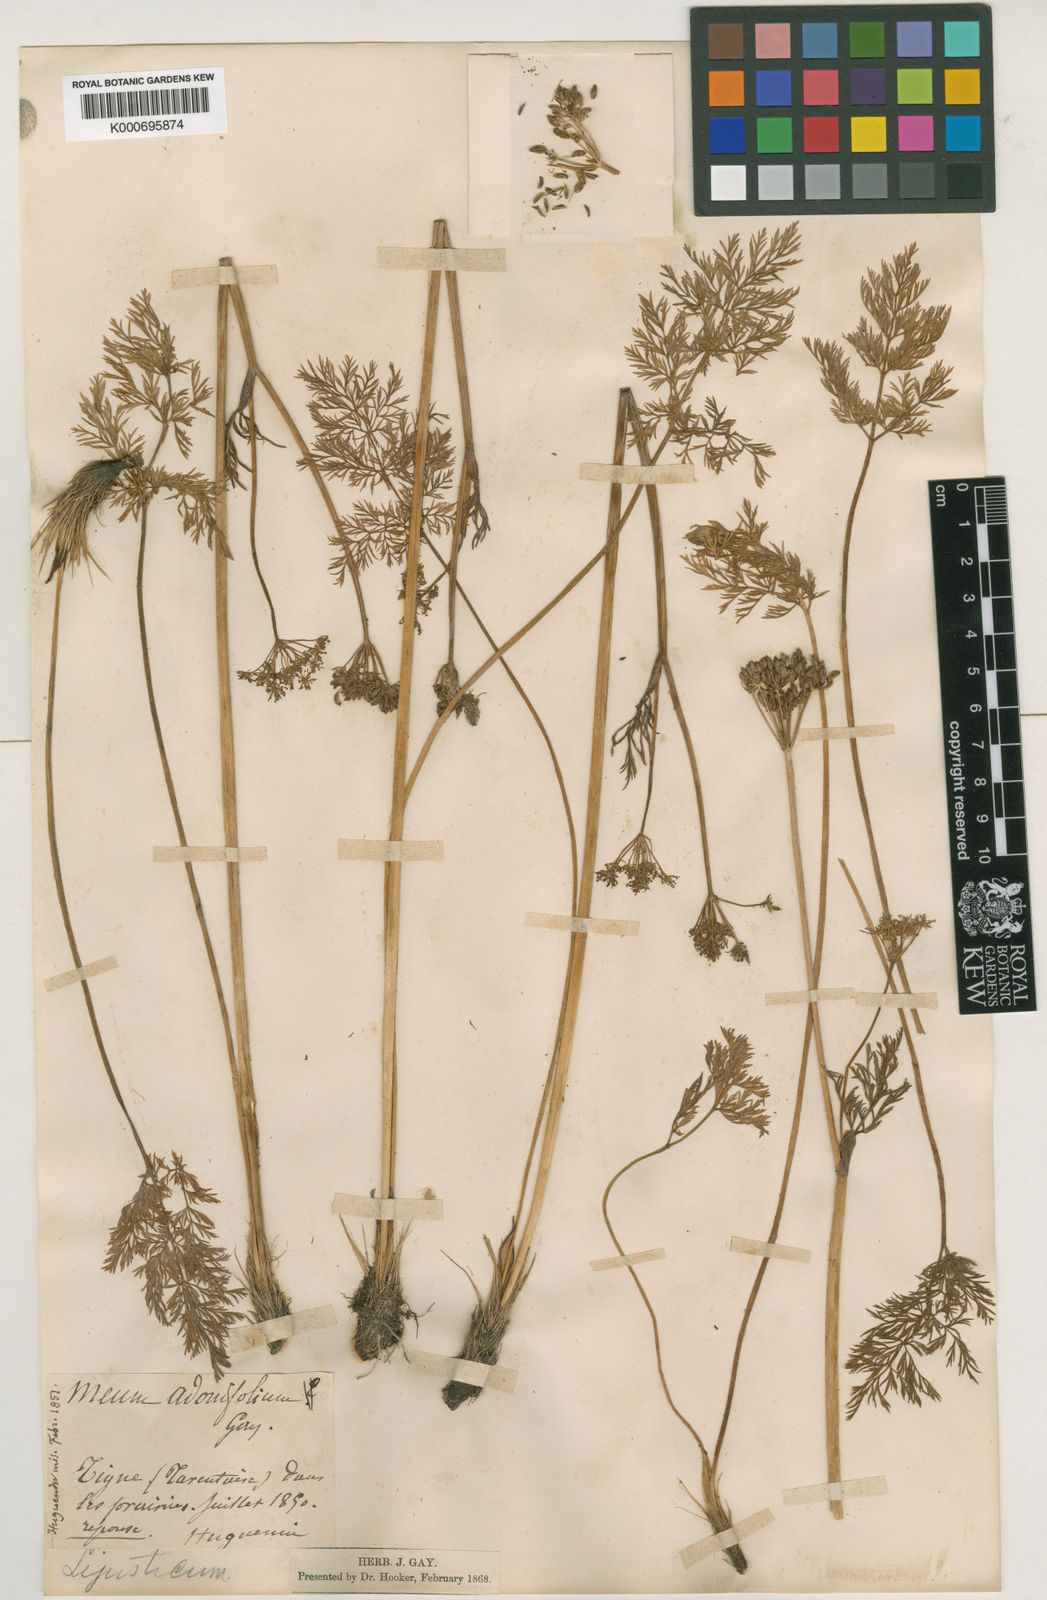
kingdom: Plantae
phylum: Tracheophyta
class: Magnoliopsida
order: Apiales
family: Apiaceae
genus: Mutellina
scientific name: Mutellina adonidifolia
